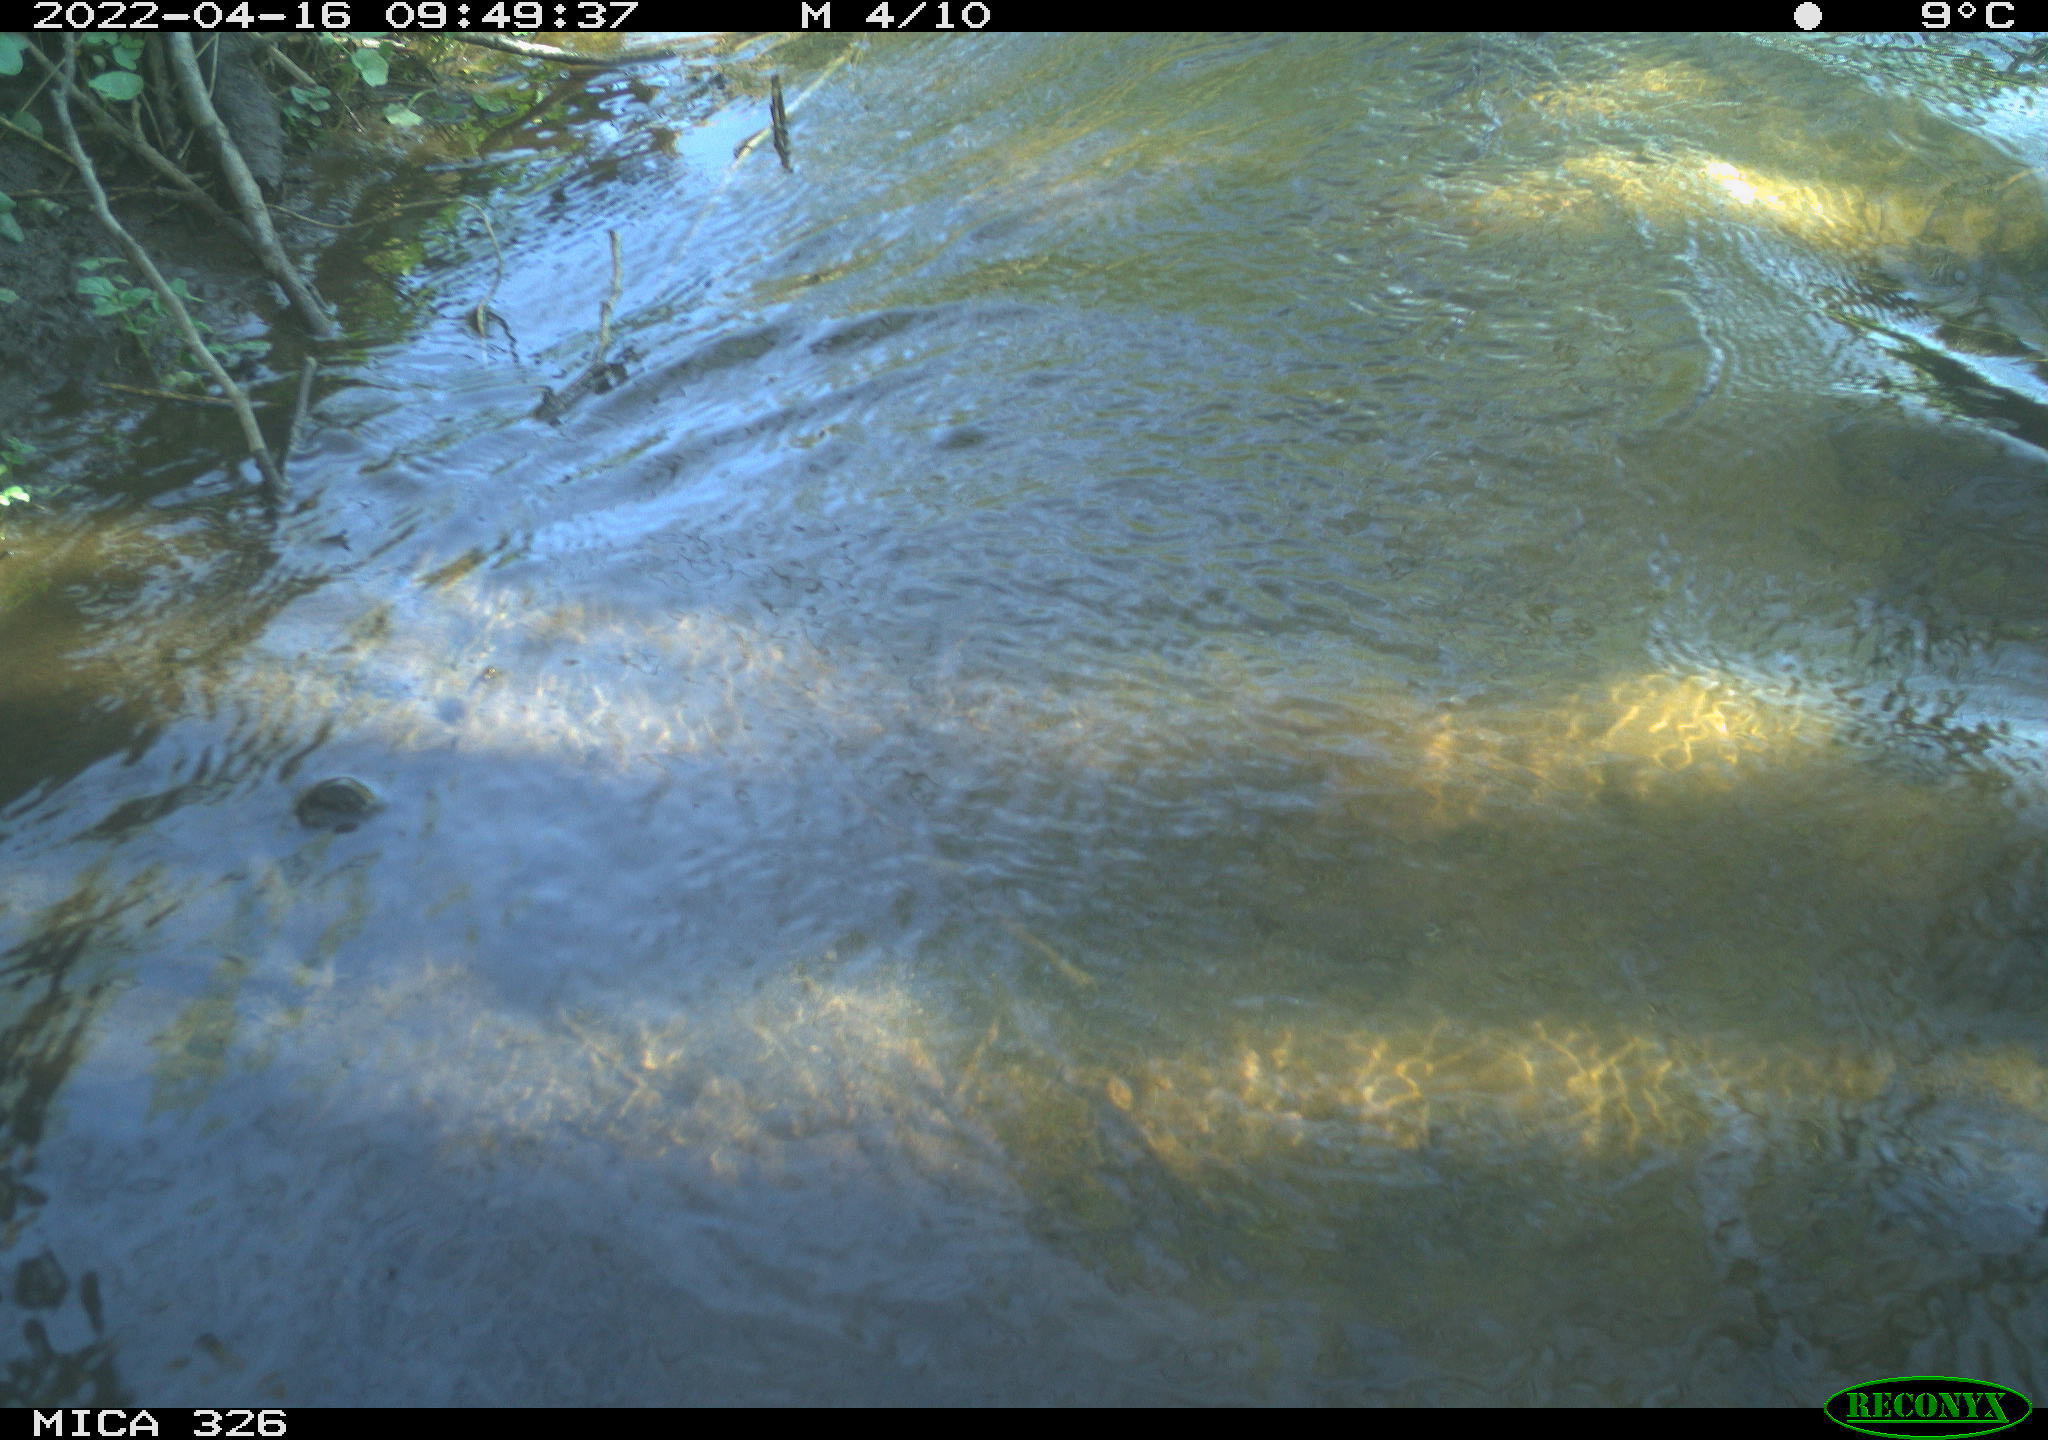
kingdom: Animalia
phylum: Chordata
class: Mammalia
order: Rodentia
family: Cricetidae
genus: Ondatra
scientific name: Ondatra zibethicus
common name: Muskrat
